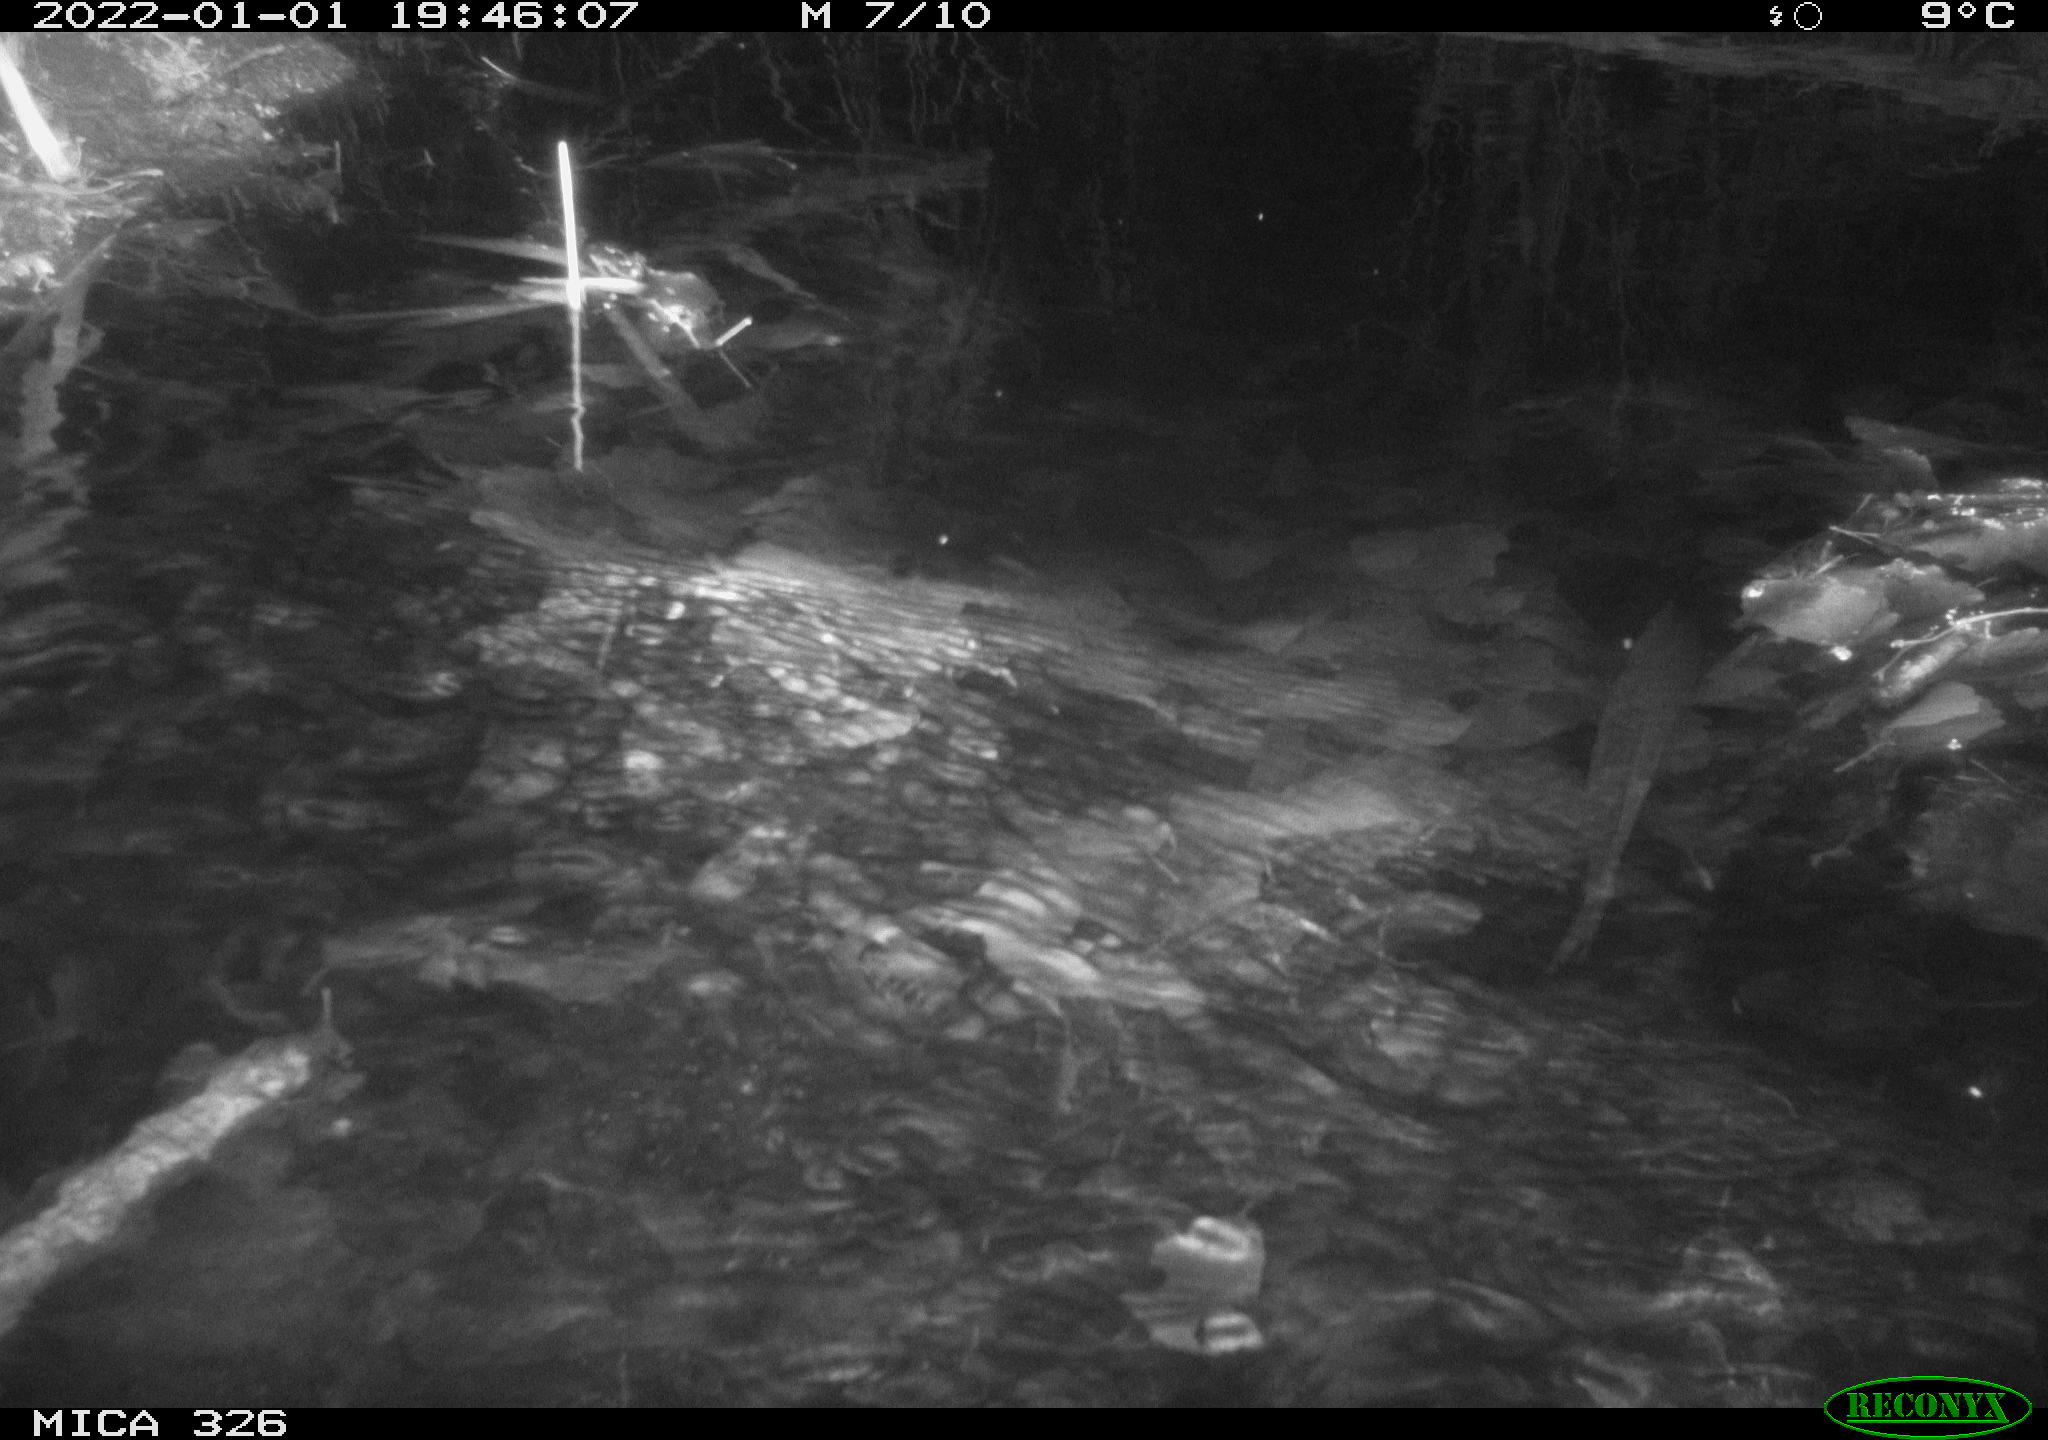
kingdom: Animalia
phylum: Chordata
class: Mammalia
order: Rodentia
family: Muridae
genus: Rattus
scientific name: Rattus norvegicus
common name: Brown rat
